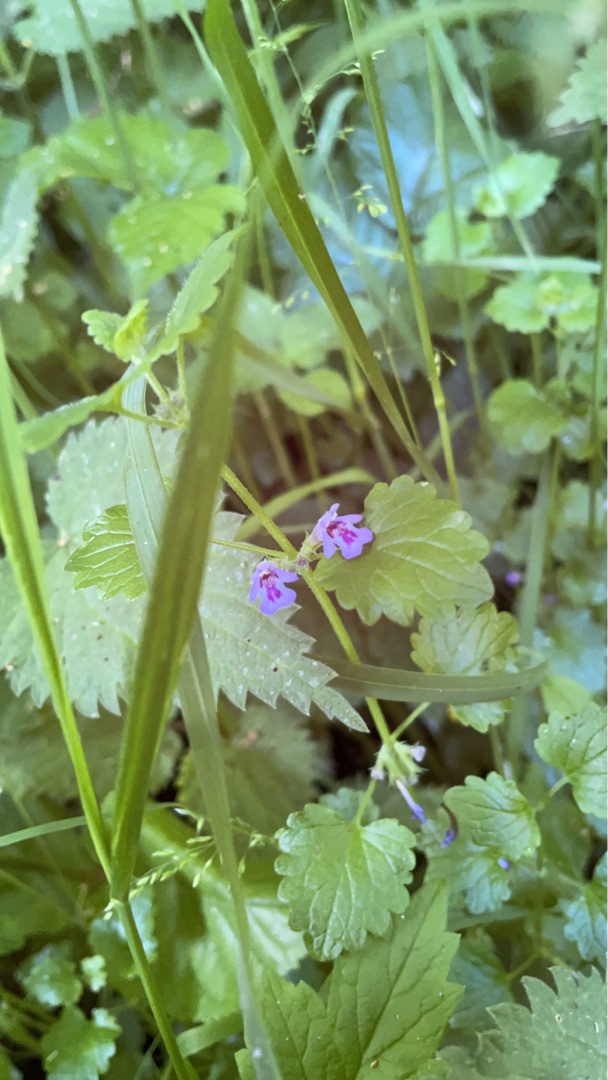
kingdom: Plantae
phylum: Tracheophyta
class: Magnoliopsida
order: Lamiales
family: Lamiaceae
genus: Glechoma
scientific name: Glechoma hederacea
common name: Korsknap
